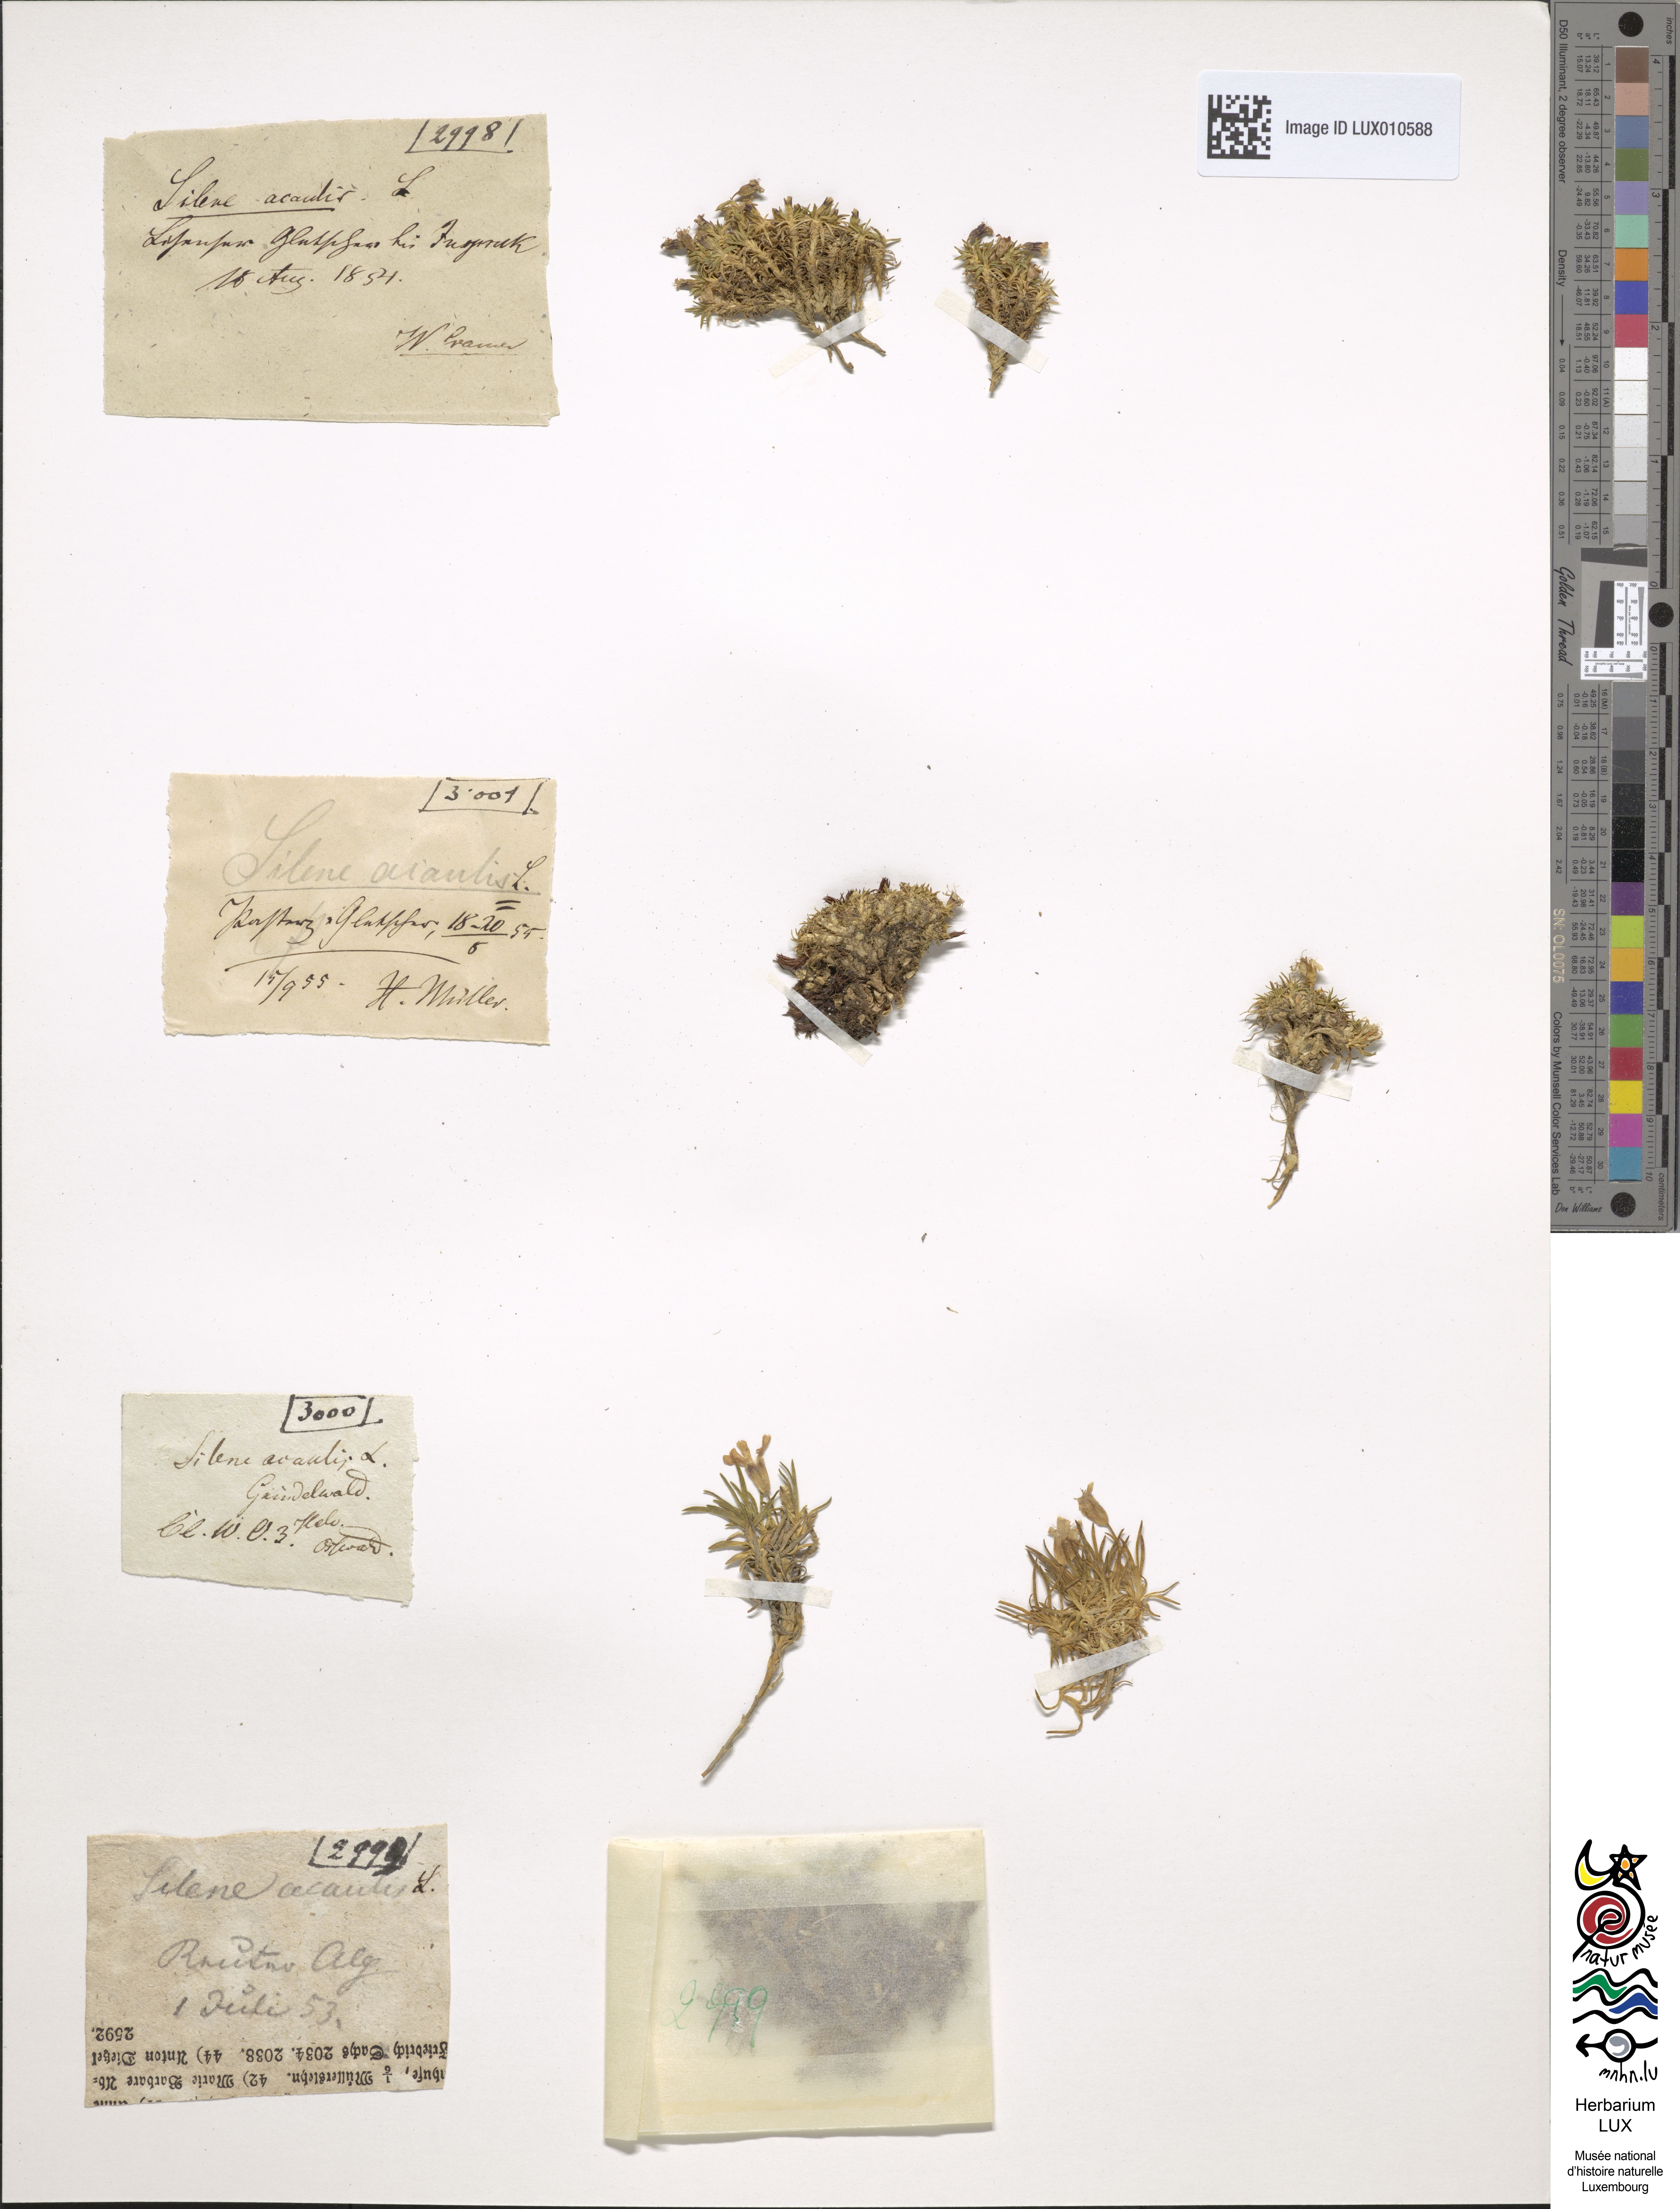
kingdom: Plantae
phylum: Tracheophyta
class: Magnoliopsida
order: Caryophyllales
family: Caryophyllaceae
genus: Silene
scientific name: Silene acaulis
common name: Moss campion
